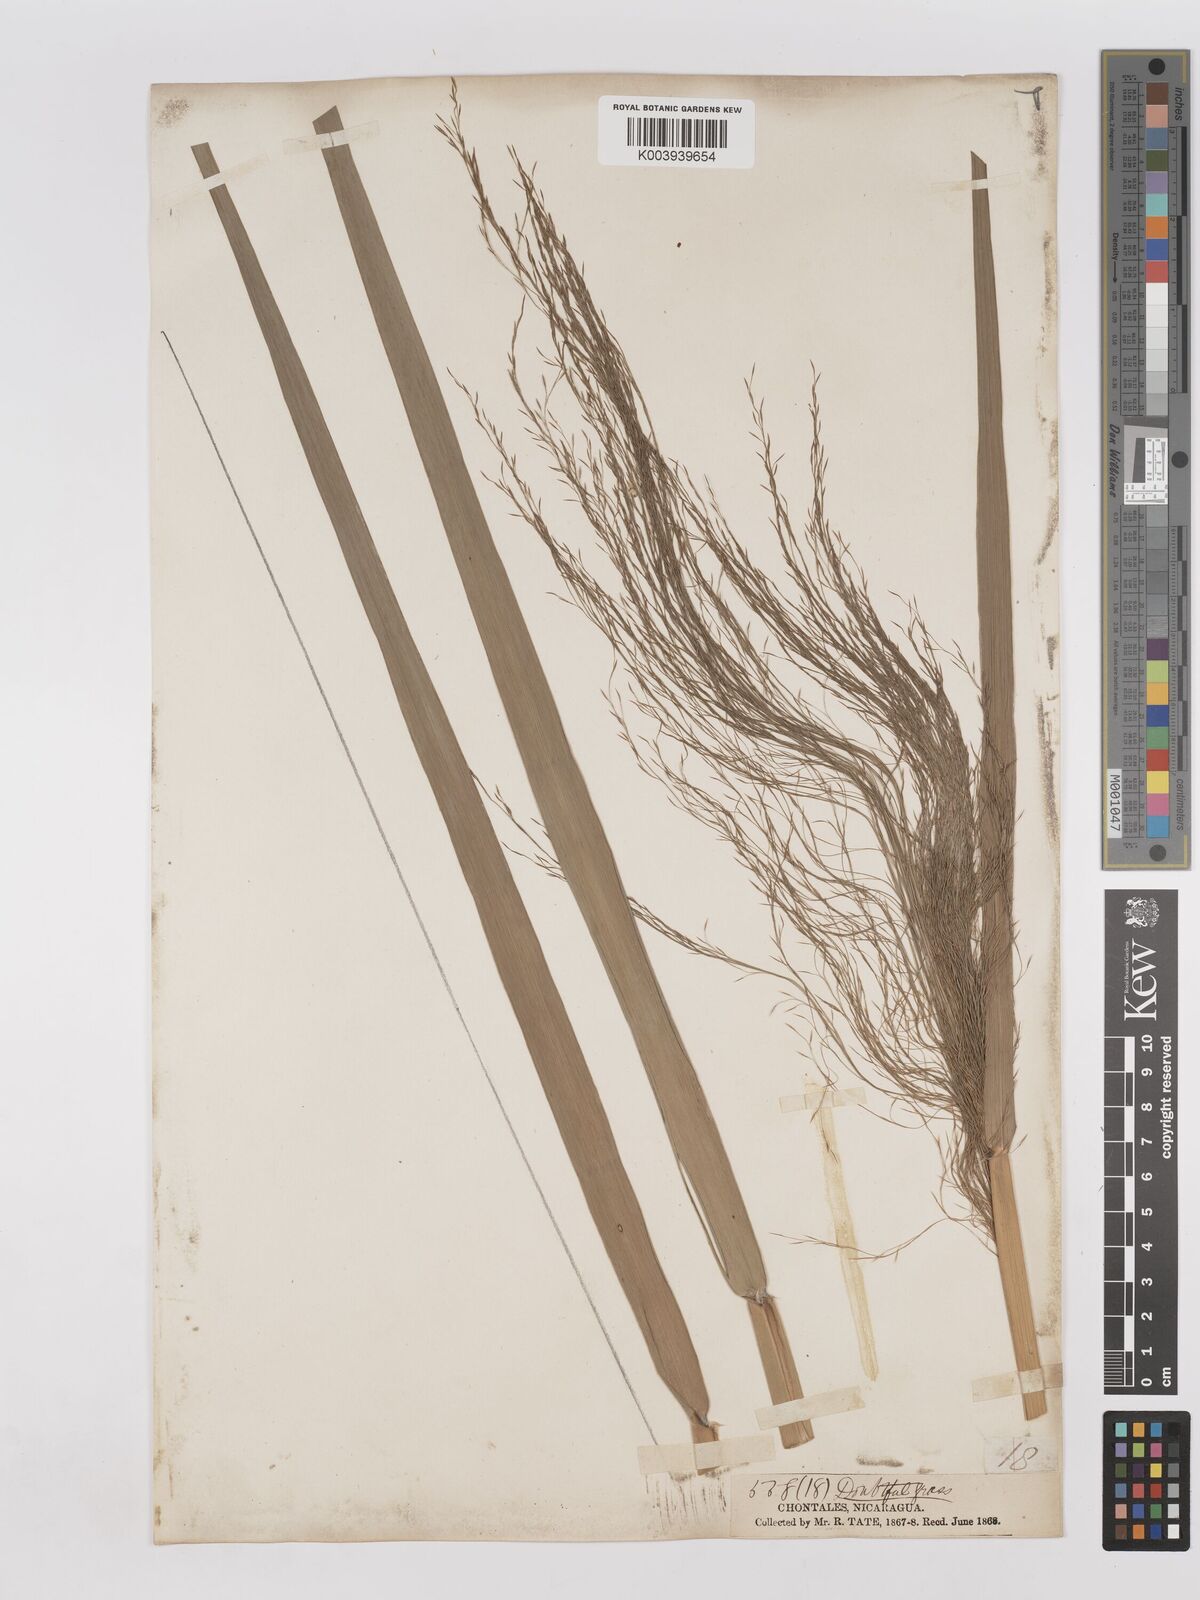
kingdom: Plantae
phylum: Tracheophyta
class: Liliopsida
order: Poales
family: Poaceae
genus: Phragmites
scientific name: Phragmites australis
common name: Common reed
